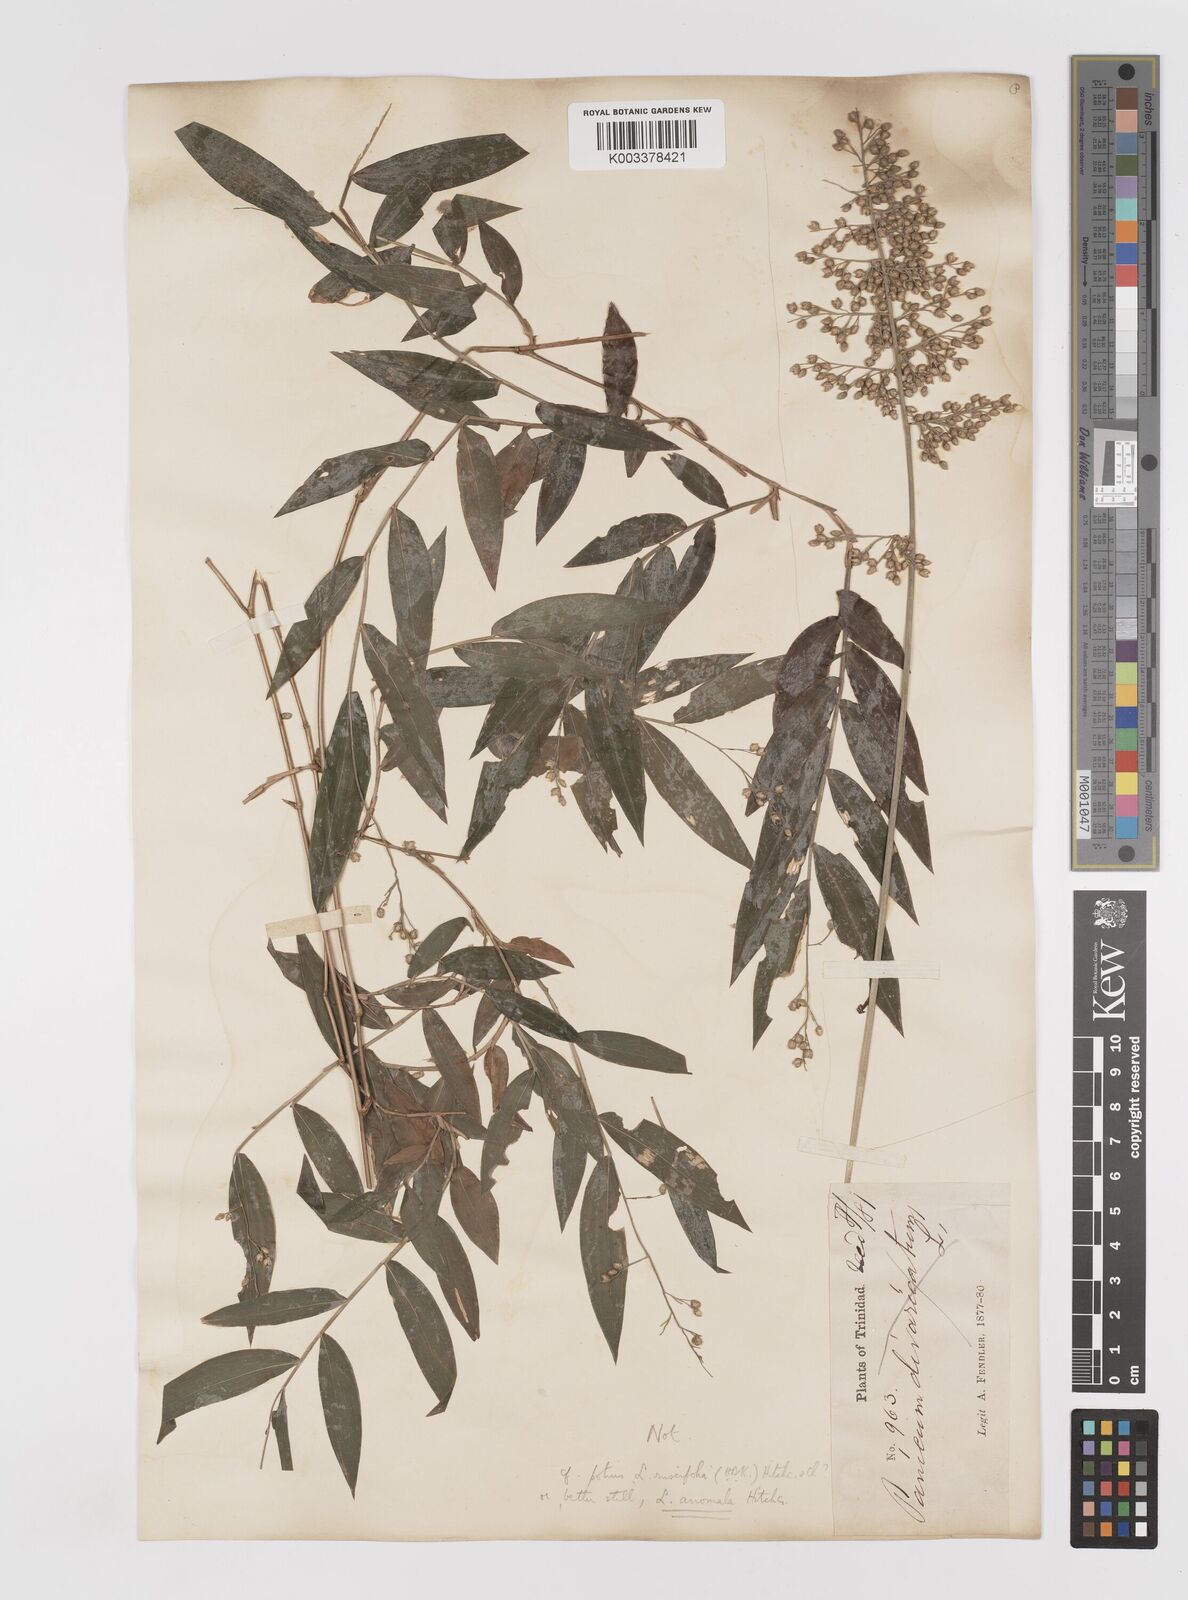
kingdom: Plantae
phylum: Tracheophyta
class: Liliopsida
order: Poales
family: Poaceae
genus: Lasiacis
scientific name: Lasiacis anomala
